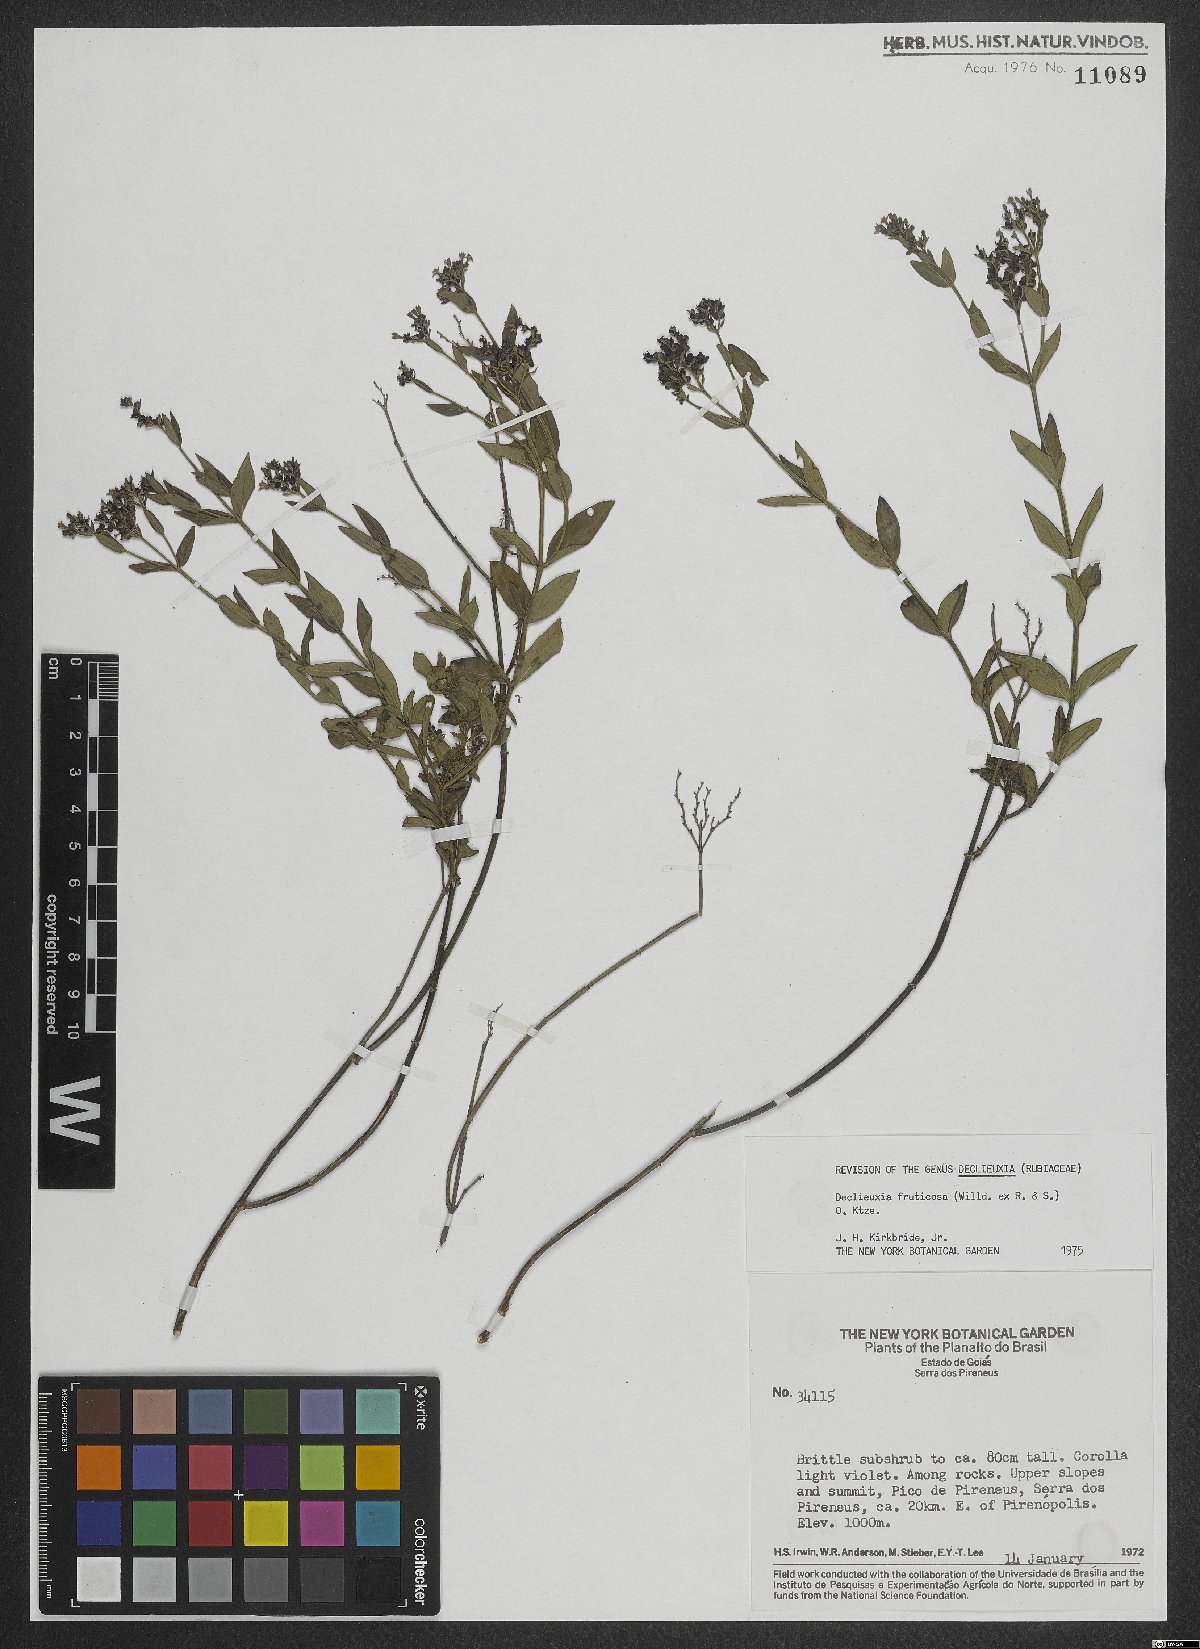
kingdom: Plantae
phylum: Tracheophyta
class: Magnoliopsida
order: Gentianales
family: Rubiaceae
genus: Declieuxia
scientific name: Declieuxia fruticosa
